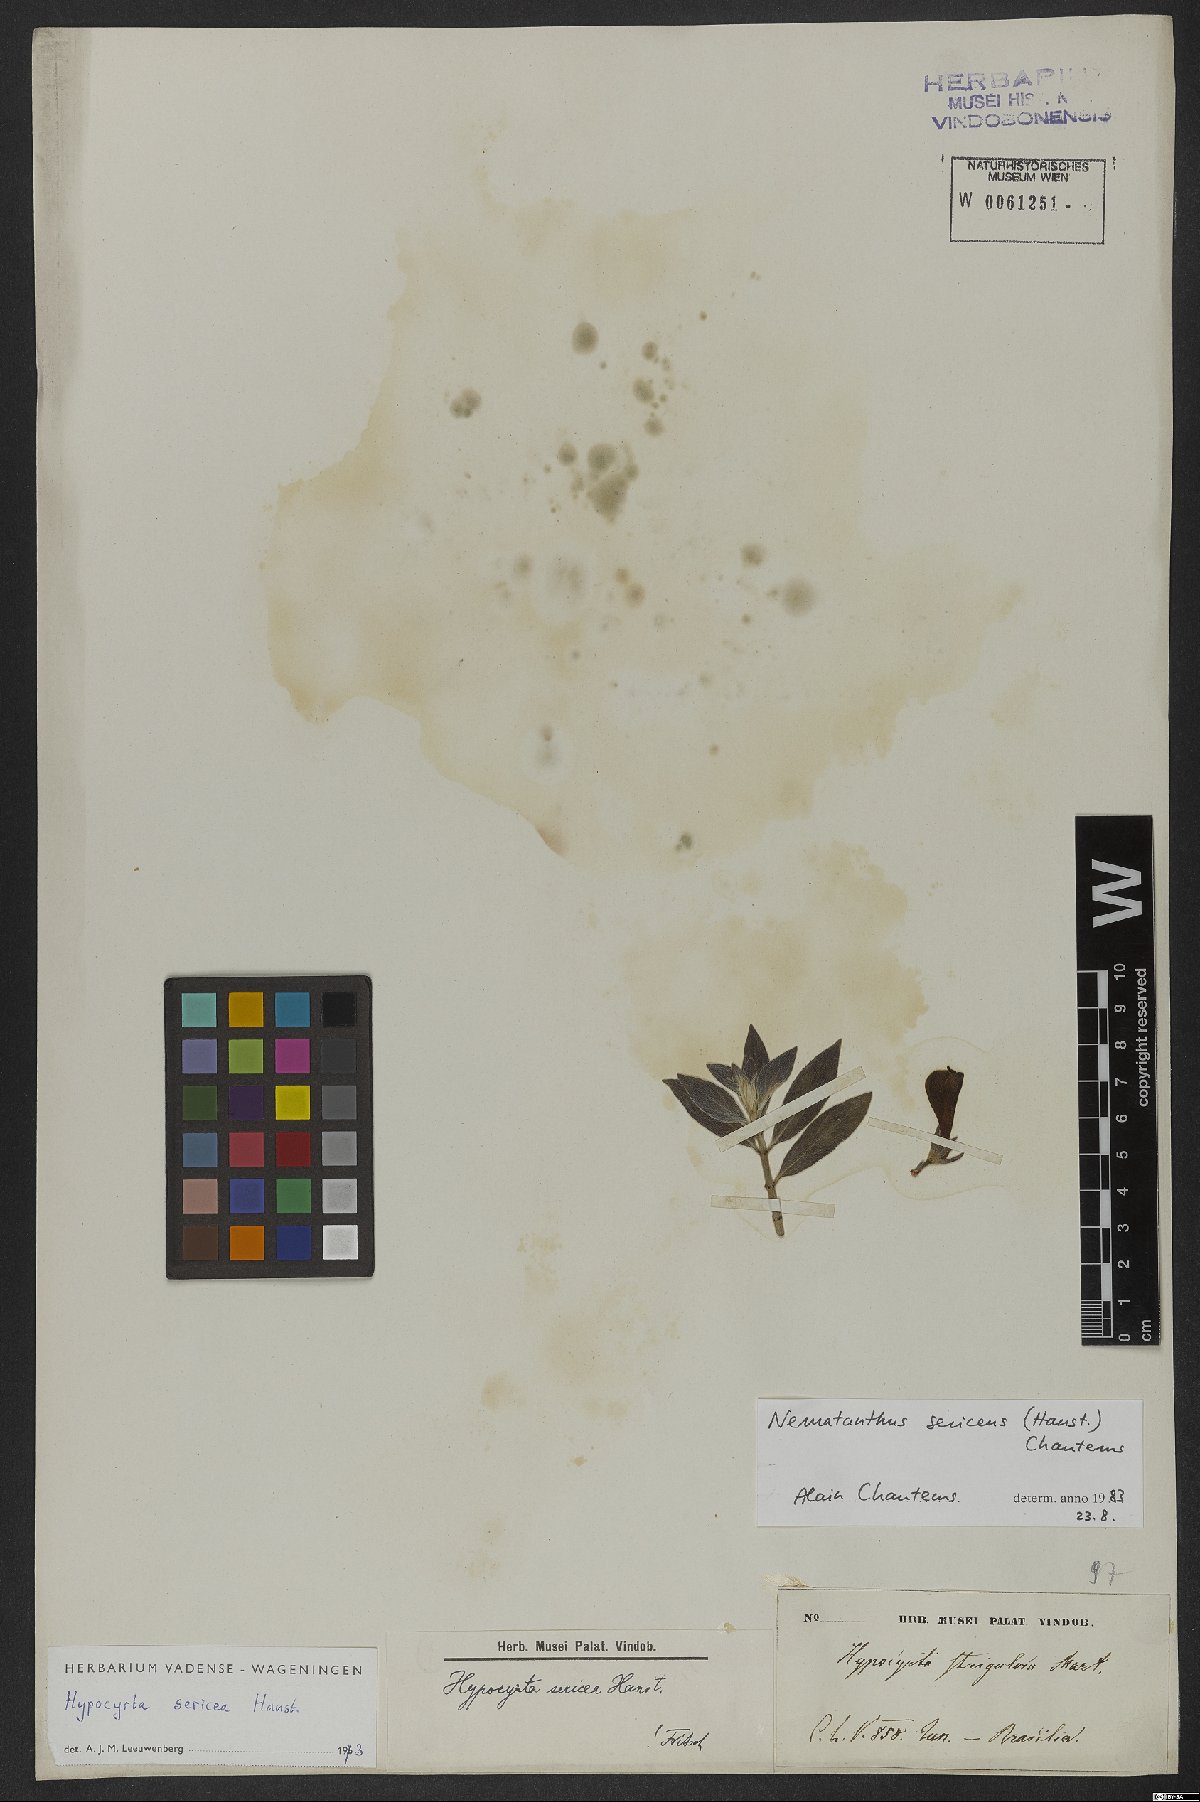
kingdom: Plantae
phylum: Tracheophyta
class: Magnoliopsida
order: Lamiales
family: Gesneriaceae
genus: Nematanthus
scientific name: Nematanthus sericeus
